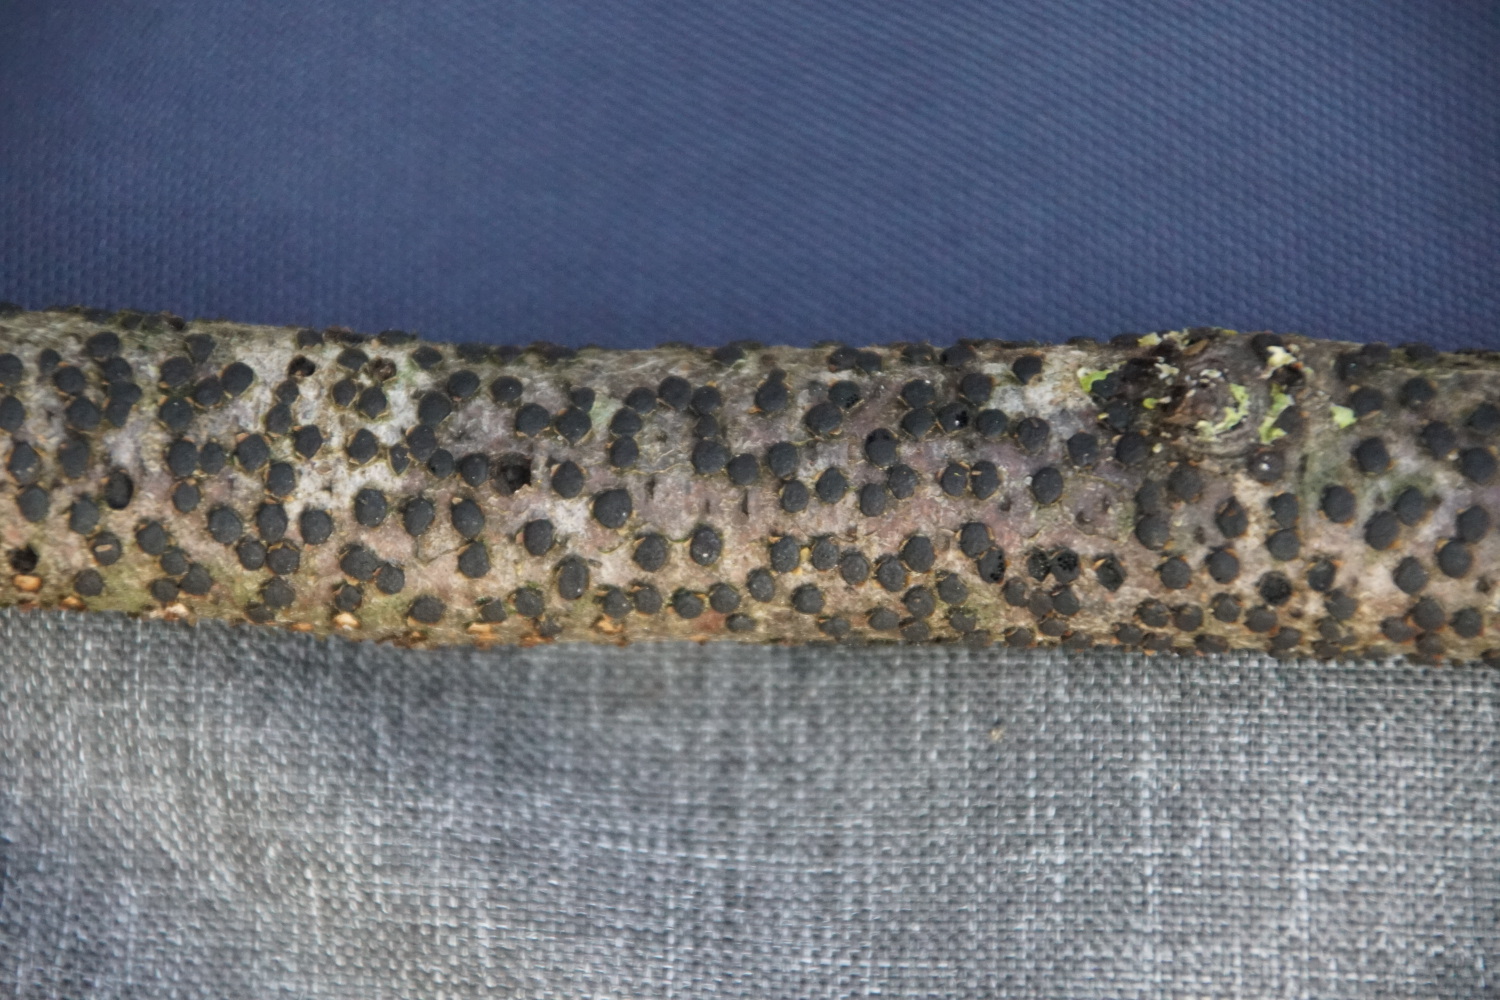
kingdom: Fungi
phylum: Ascomycota
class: Sordariomycetes
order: Xylariales
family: Diatrypaceae
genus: Diatrype
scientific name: Diatrype disciformis
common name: kant-kulskorpe
